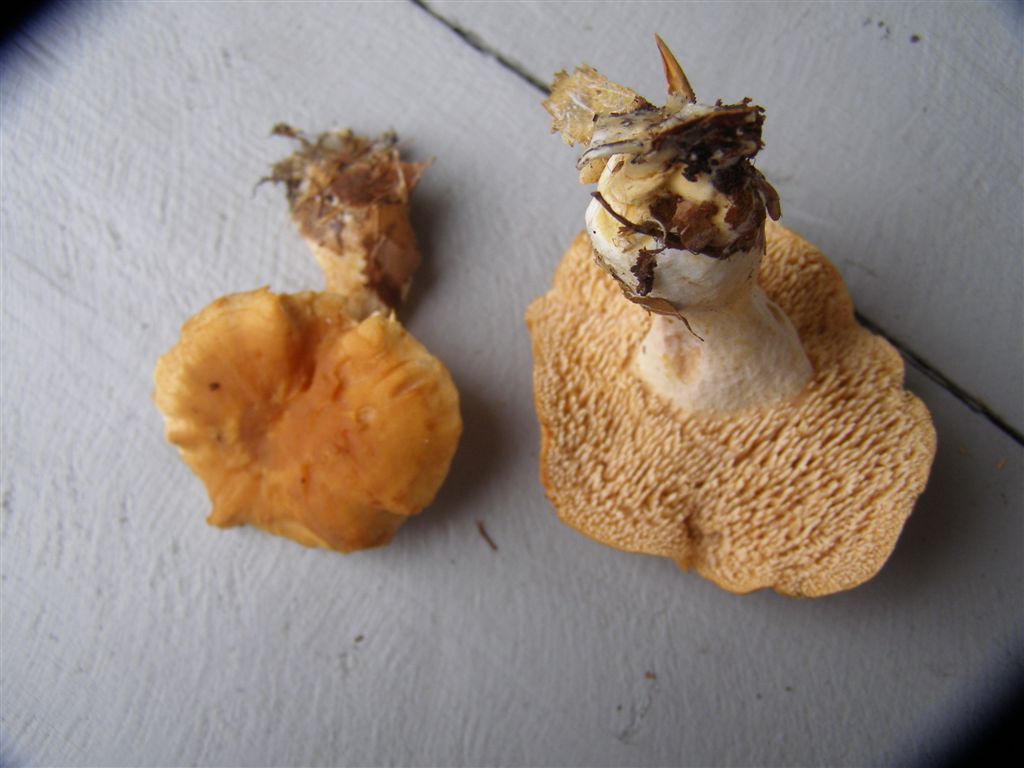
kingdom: Fungi
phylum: Basidiomycota
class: Agaricomycetes
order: Cantharellales
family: Hydnaceae
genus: Hydnum
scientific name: Hydnum umbilicatum
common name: navle-pigsvamp
